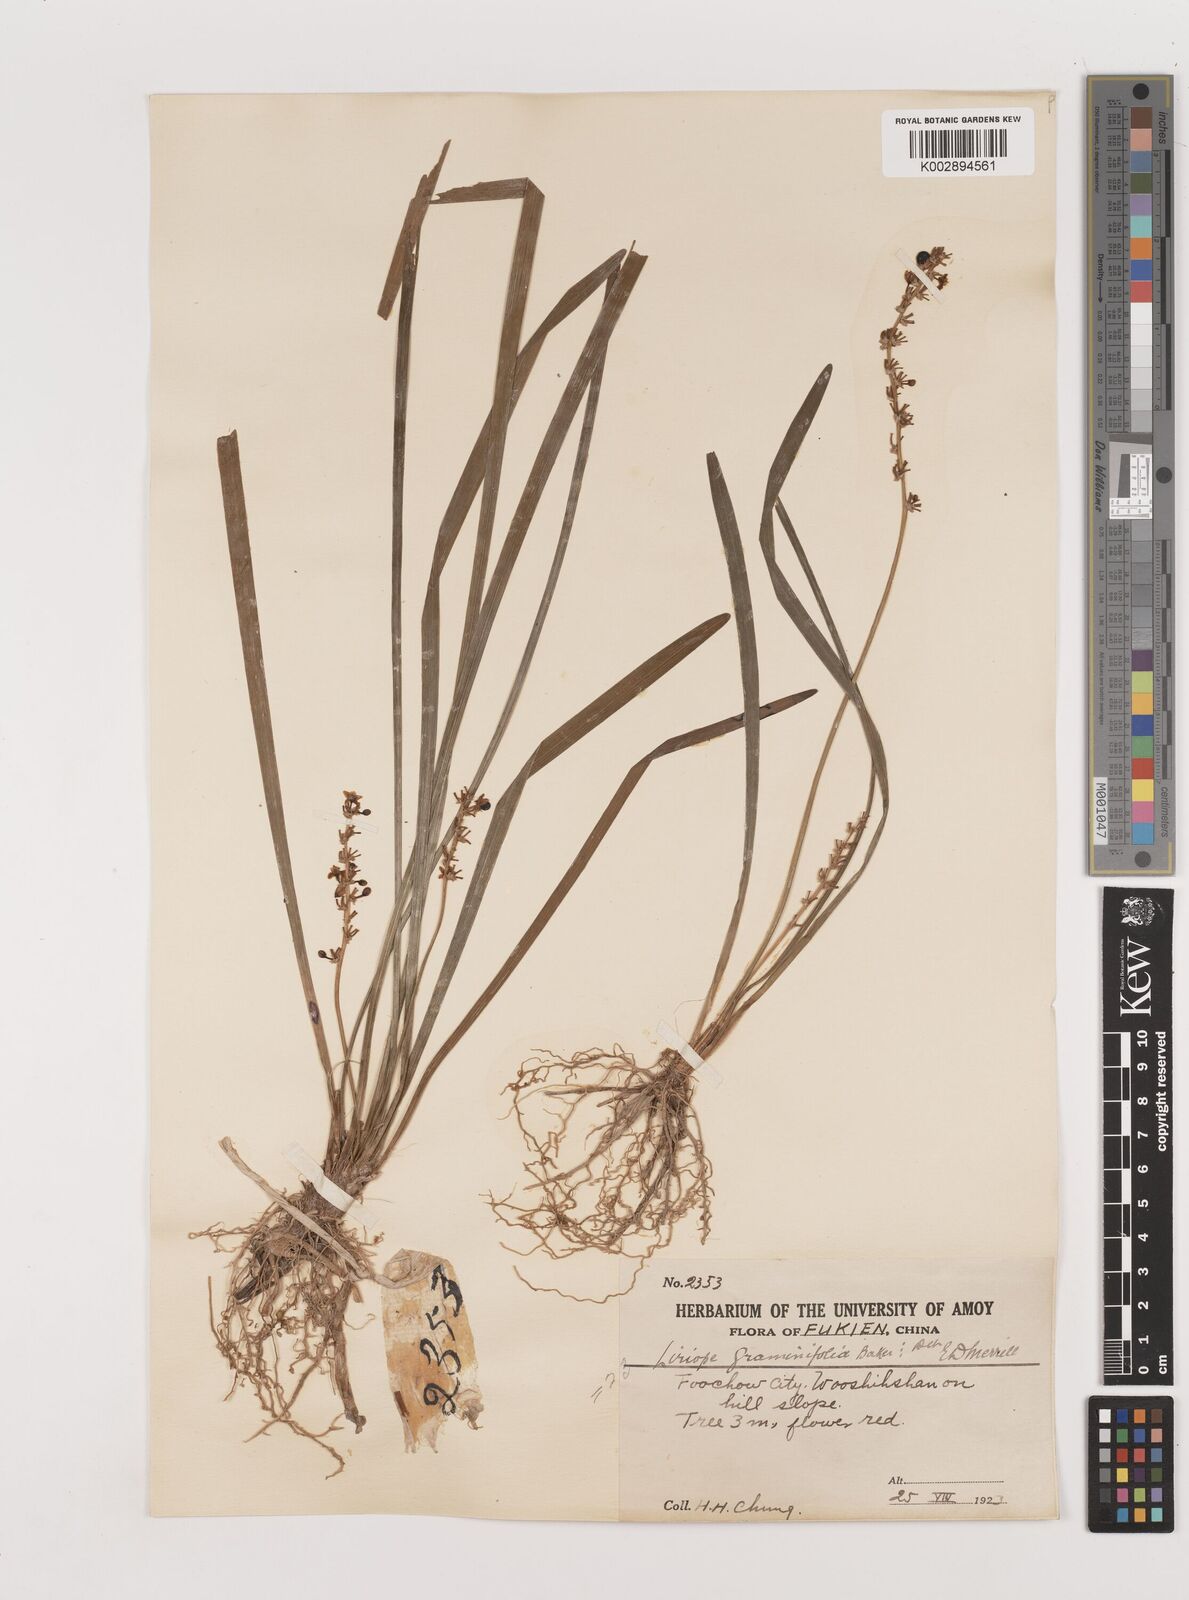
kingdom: Plantae
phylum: Tracheophyta
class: Liliopsida
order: Asparagales
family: Asparagaceae
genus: Liriope
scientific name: Liriope spicata
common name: Creeping liriope
